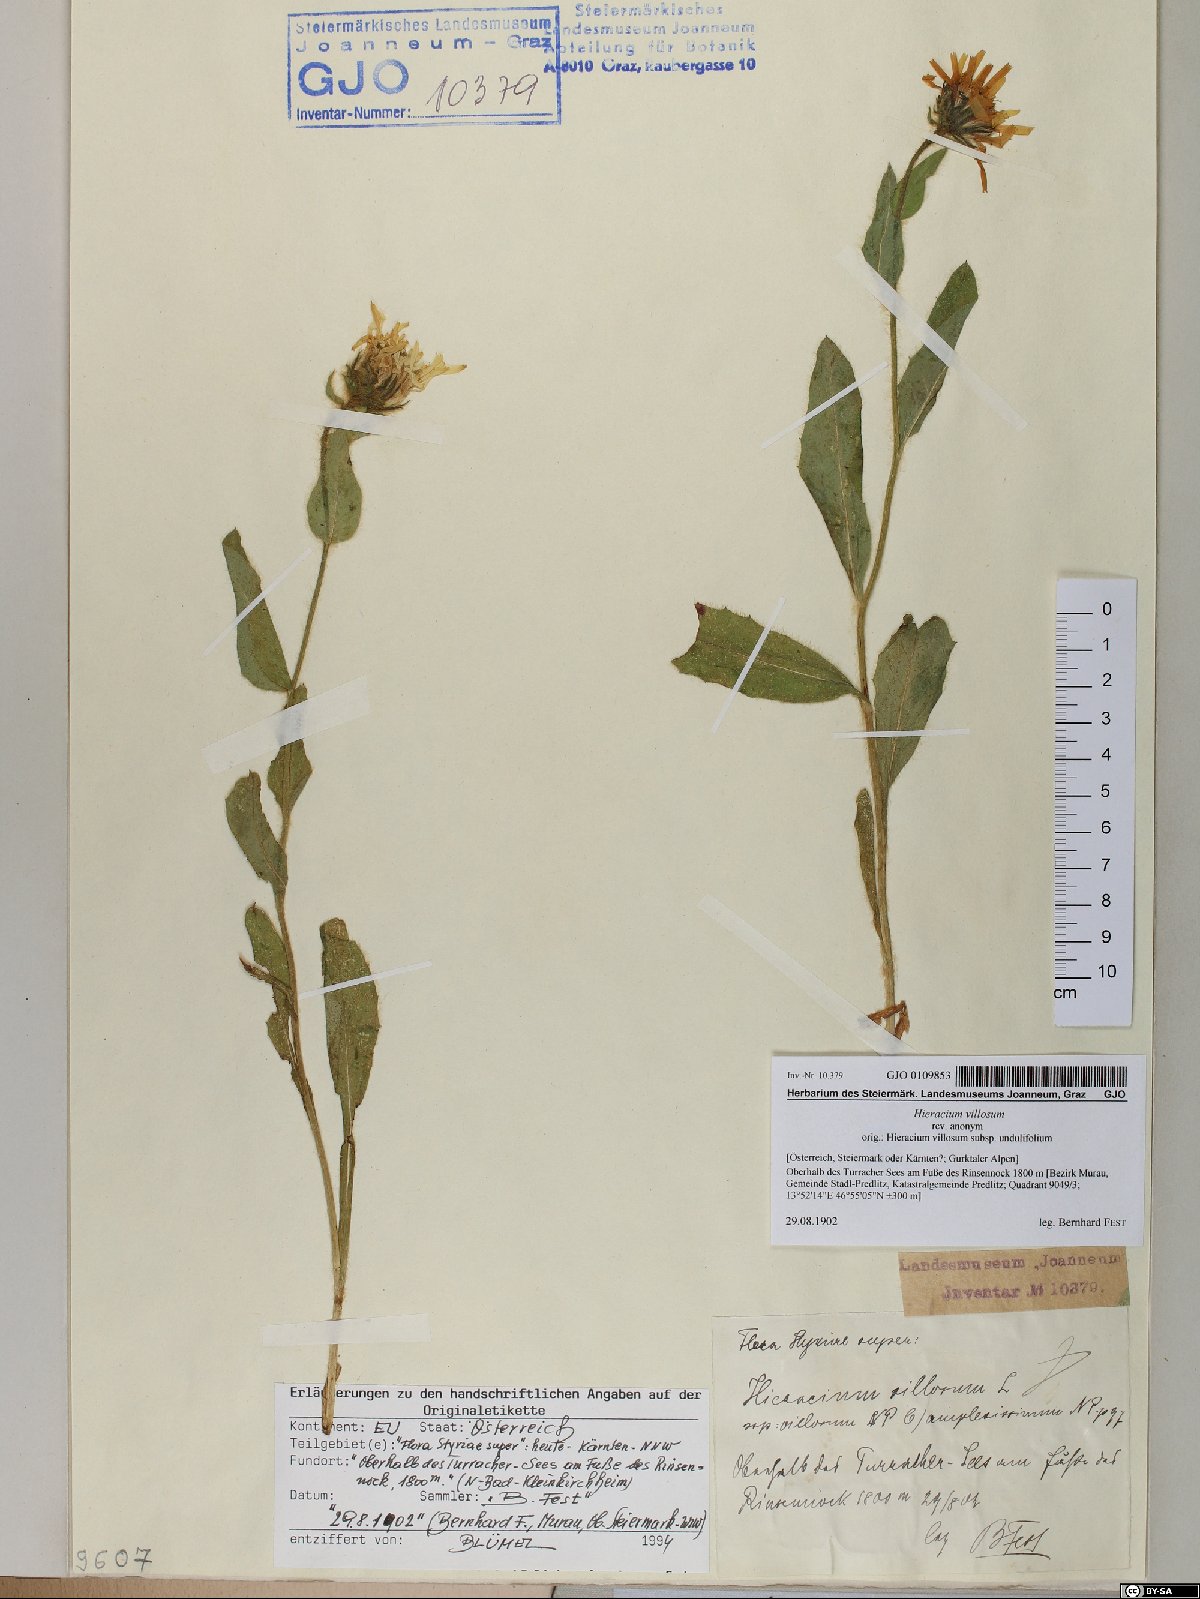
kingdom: Plantae
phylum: Tracheophyta
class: Magnoliopsida
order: Asterales
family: Asteraceae
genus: Hieracium
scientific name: Hieracium villosum
